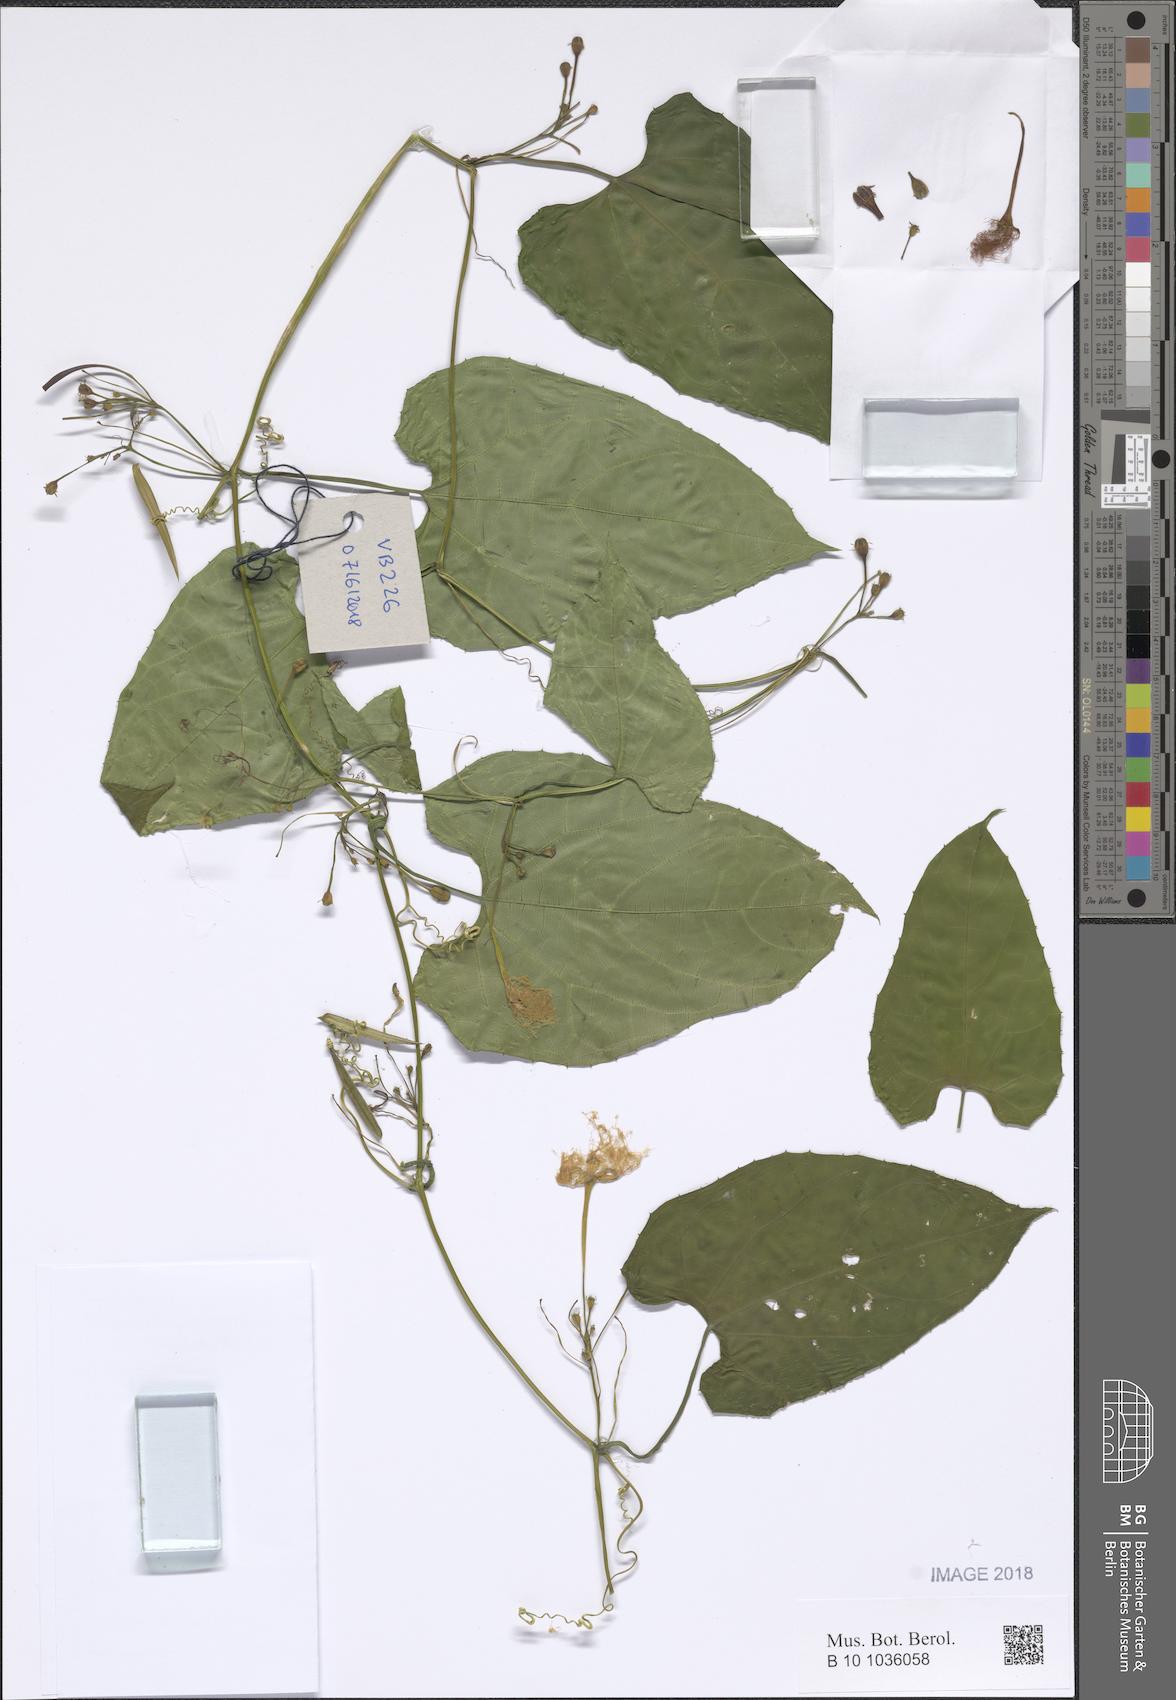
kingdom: Plantae
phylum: Tracheophyta
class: Magnoliopsida
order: Cucurbitales
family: Cucurbitaceae
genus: Trichosanthes
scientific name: Trichosanthes
